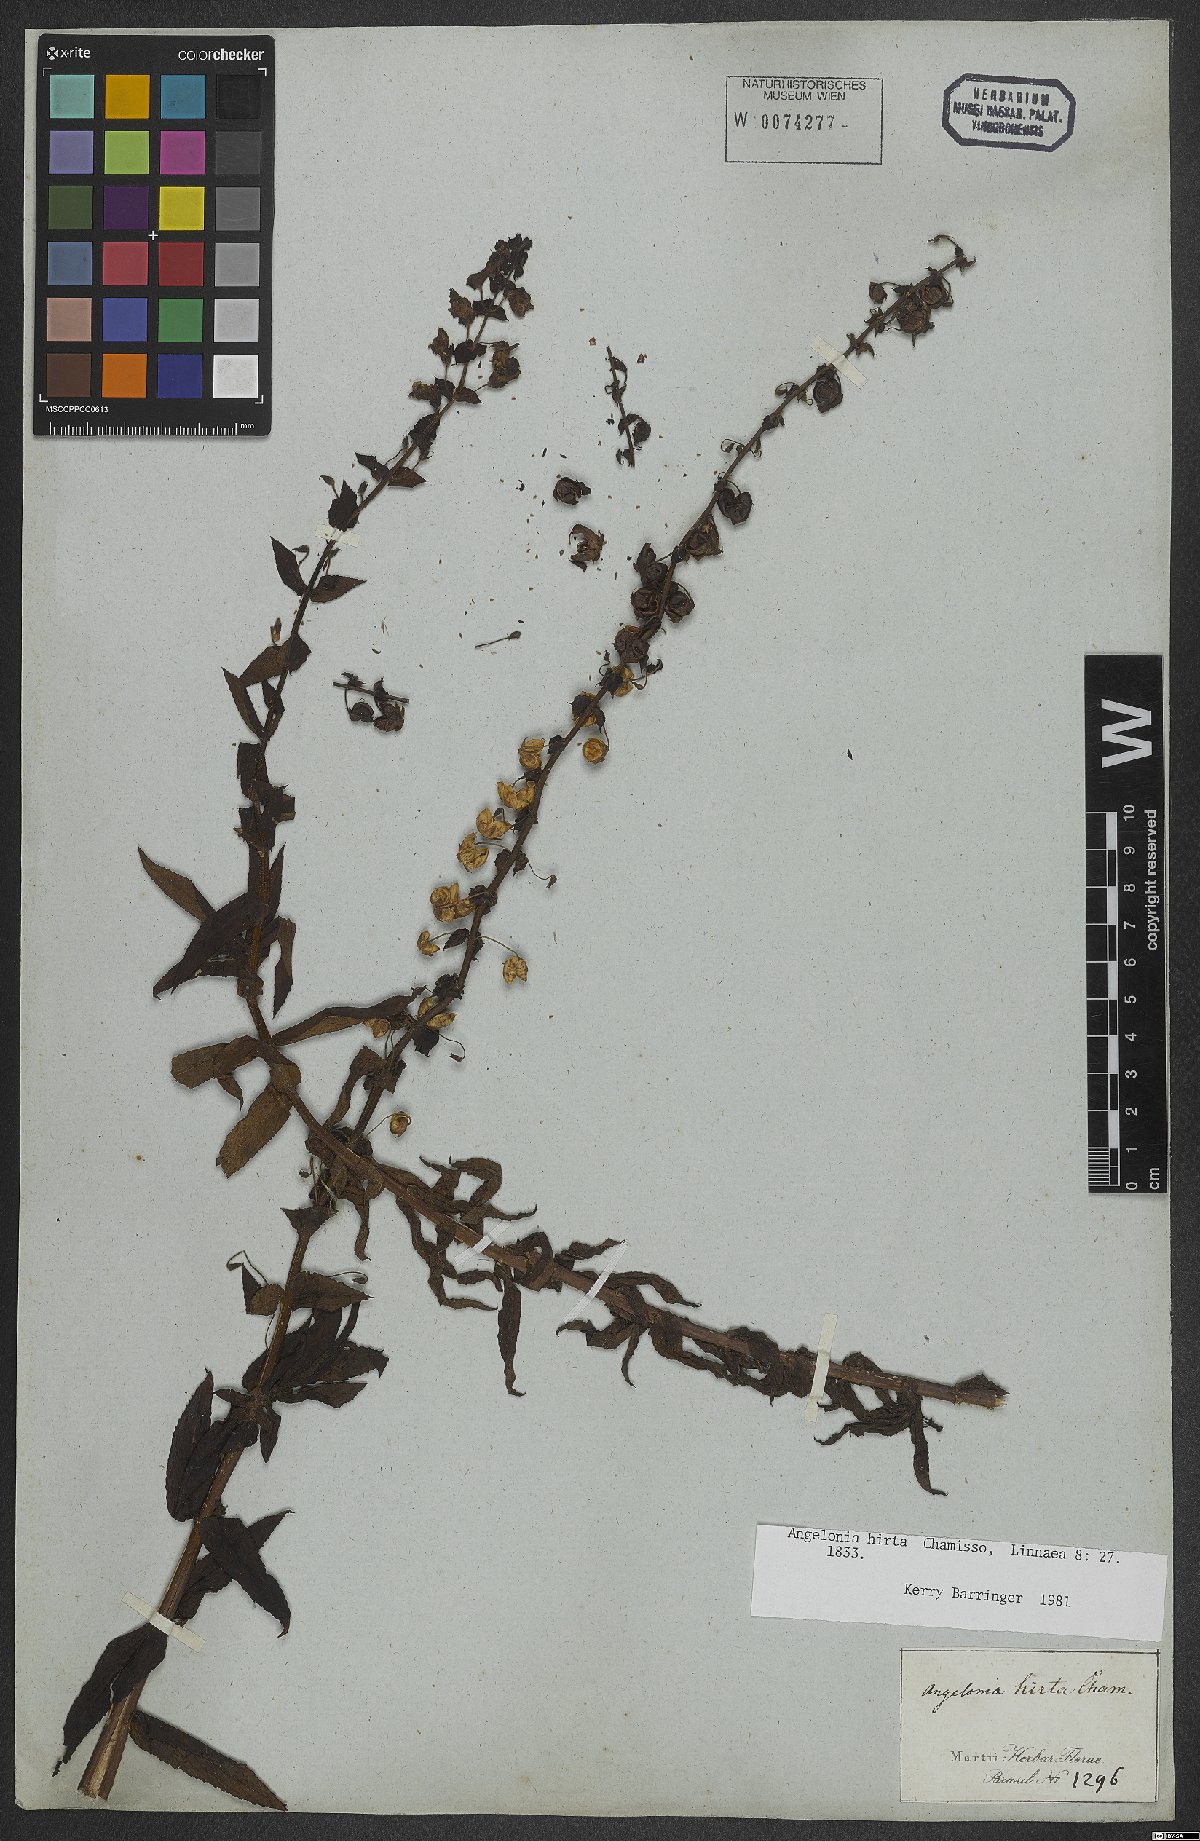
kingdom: Plantae
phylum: Tracheophyta
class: Magnoliopsida
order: Lamiales
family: Plantaginaceae
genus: Angelonia
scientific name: Angelonia salicariifolia
